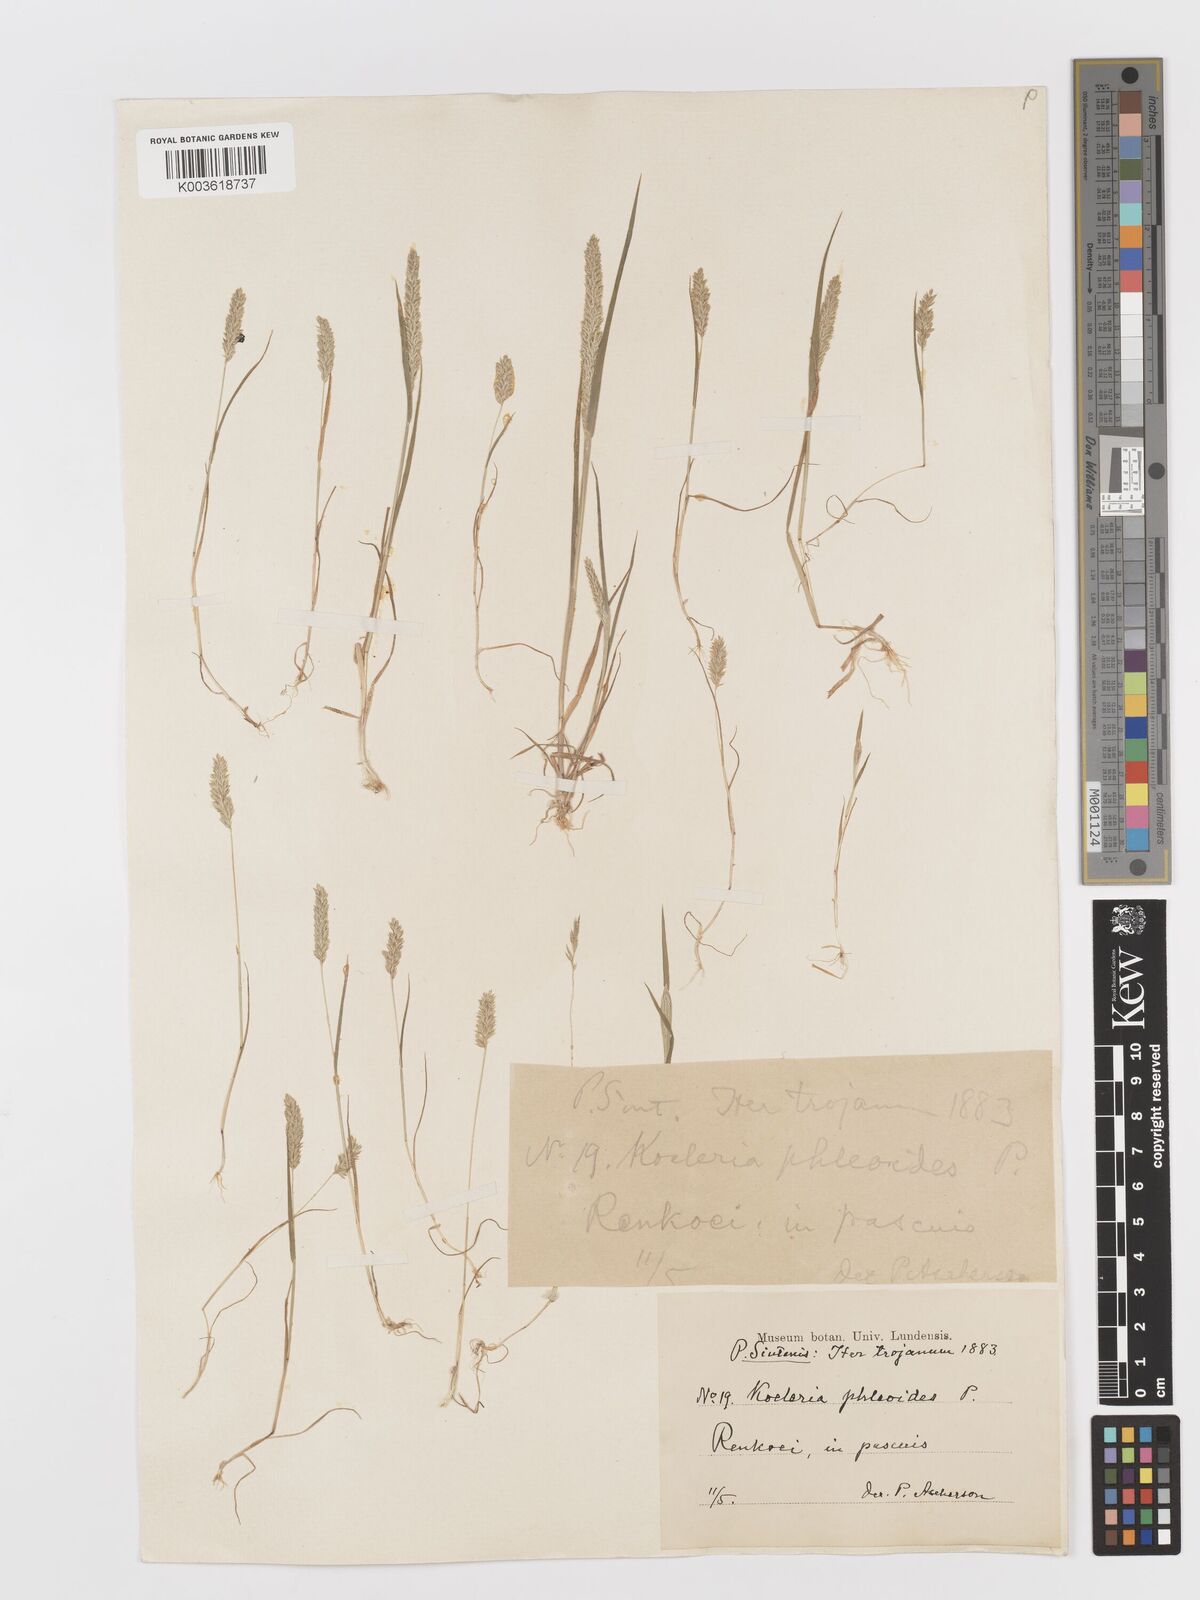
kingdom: Plantae
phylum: Tracheophyta
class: Liliopsida
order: Poales
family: Poaceae
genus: Rostraria
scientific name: Rostraria cristata
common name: Mediterranean hair-grass
